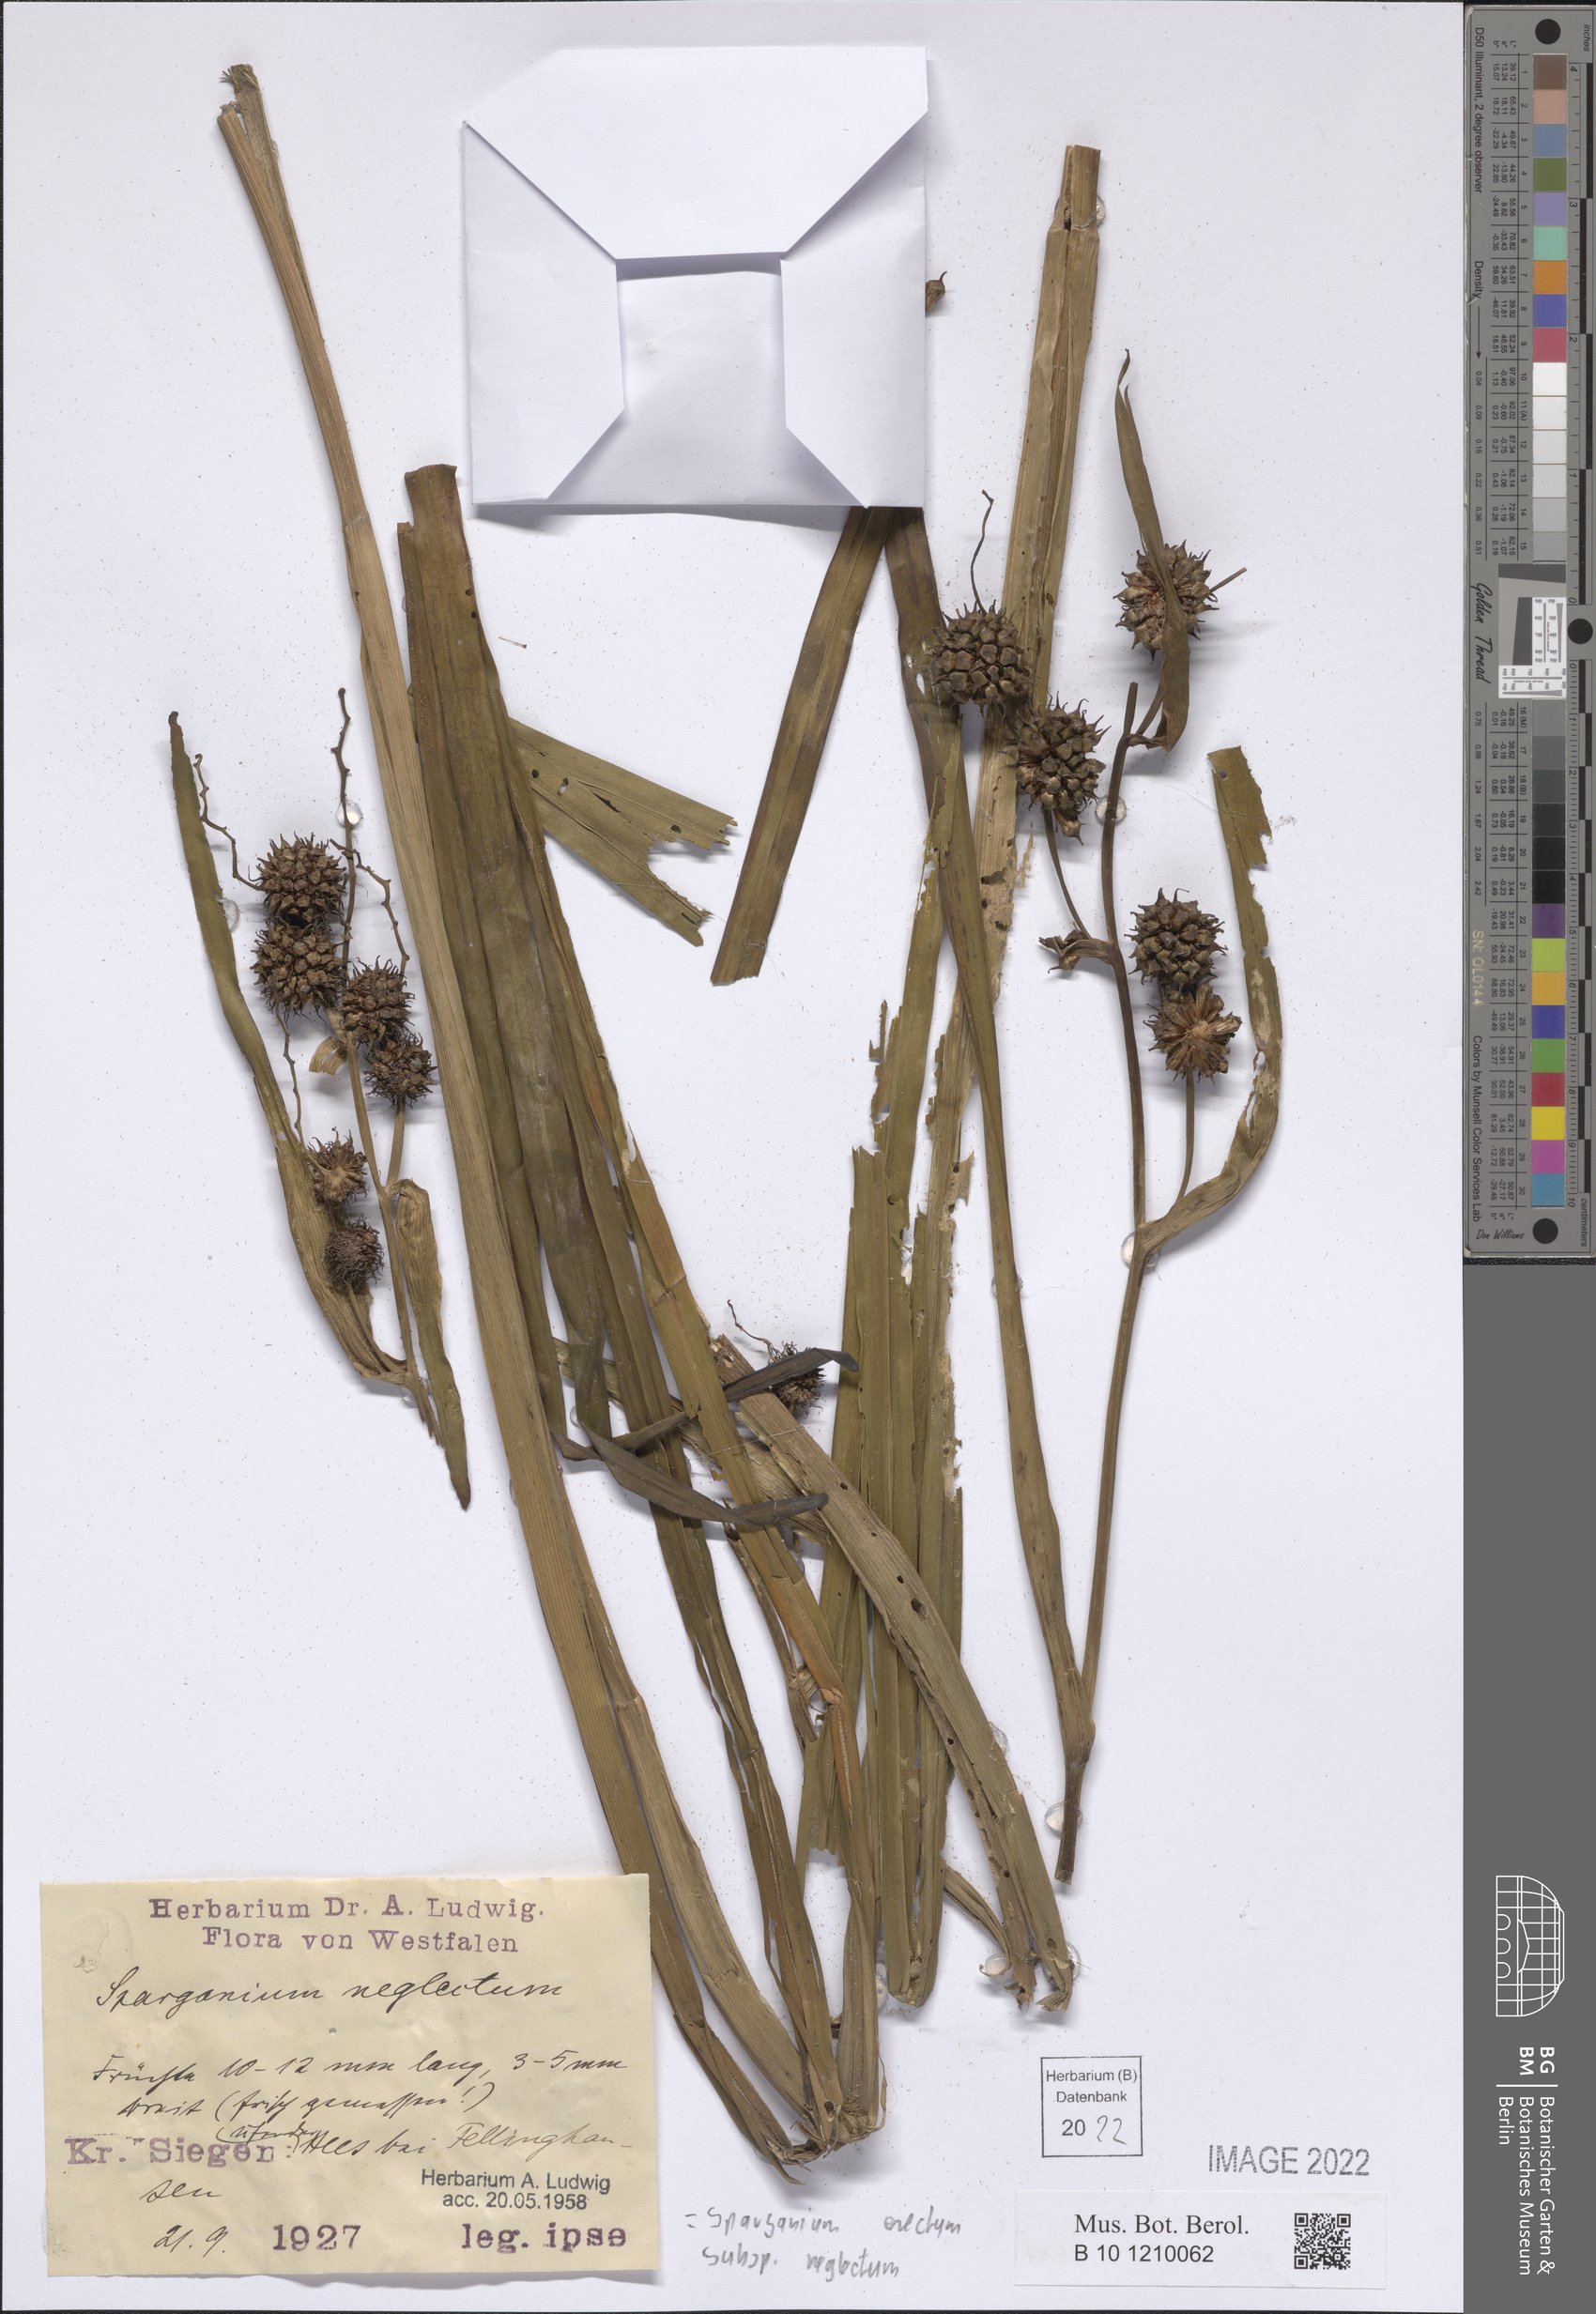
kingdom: Plantae
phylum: Tracheophyta
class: Liliopsida
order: Poales
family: Typhaceae
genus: Sparganium
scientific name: Sparganium erectum
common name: Branched bur-reed
